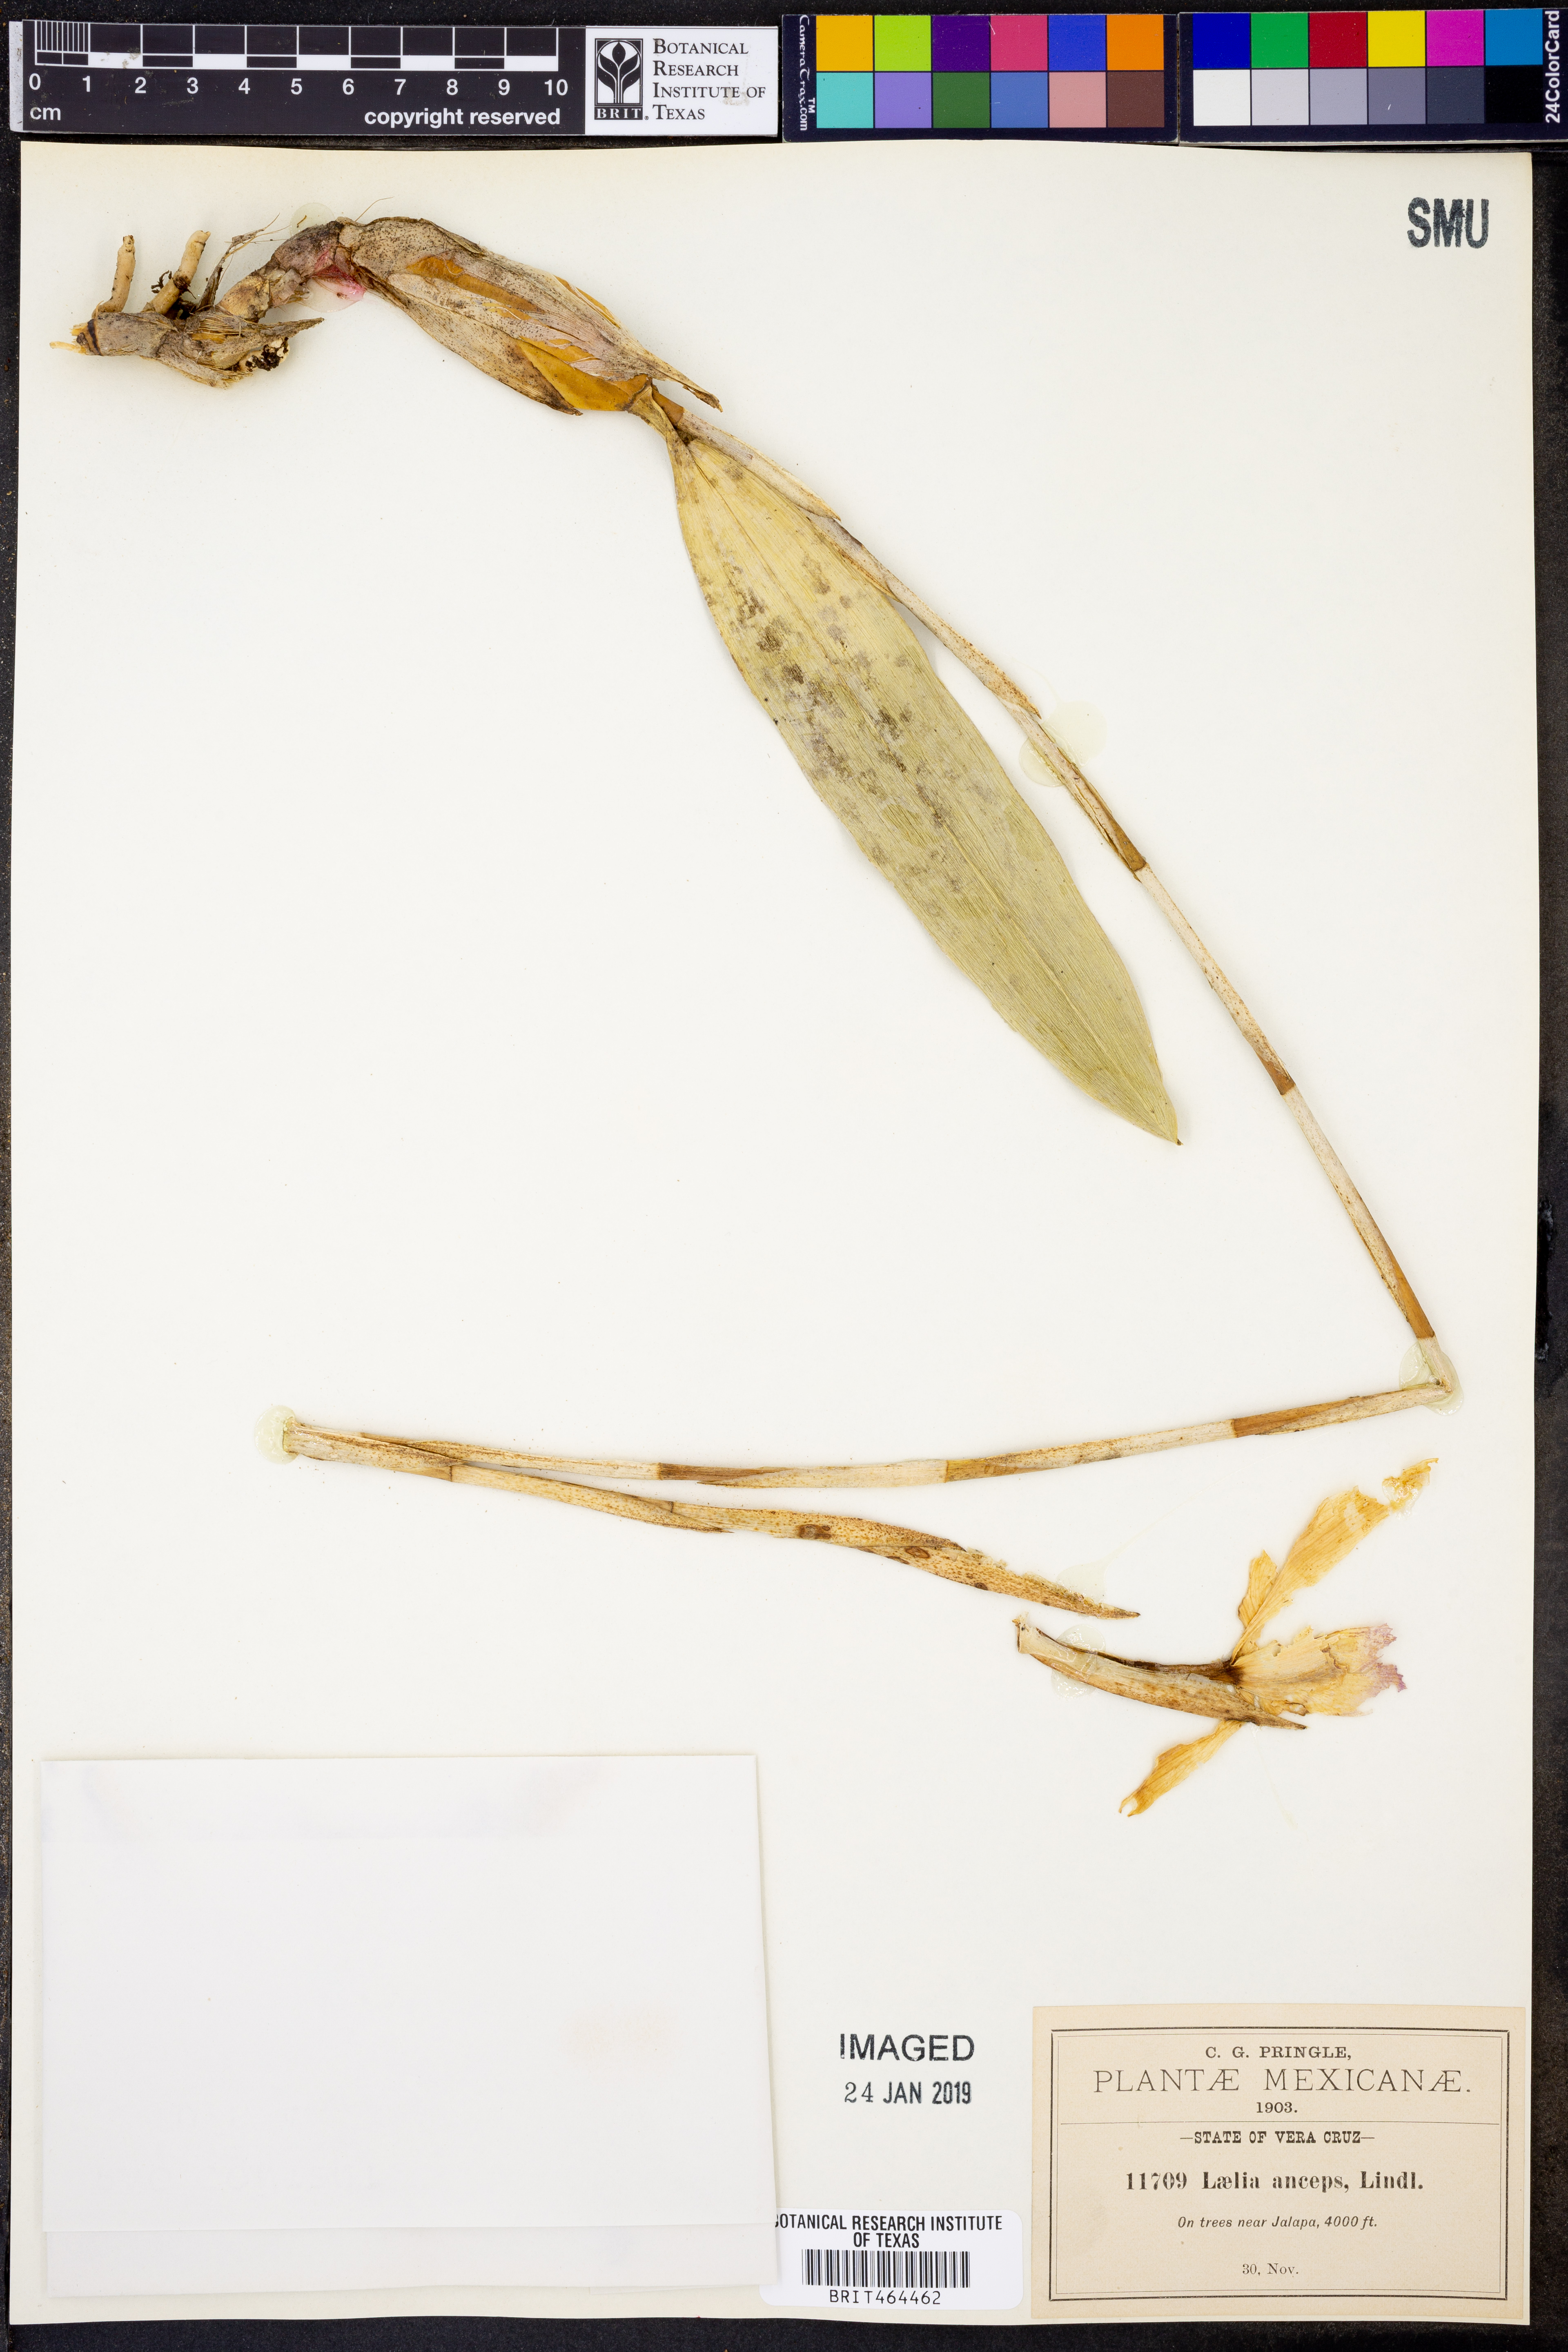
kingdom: Plantae
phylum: Tracheophyta
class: Liliopsida
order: Asparagales
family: Orchidaceae
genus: Laelia
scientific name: Laelia anceps
